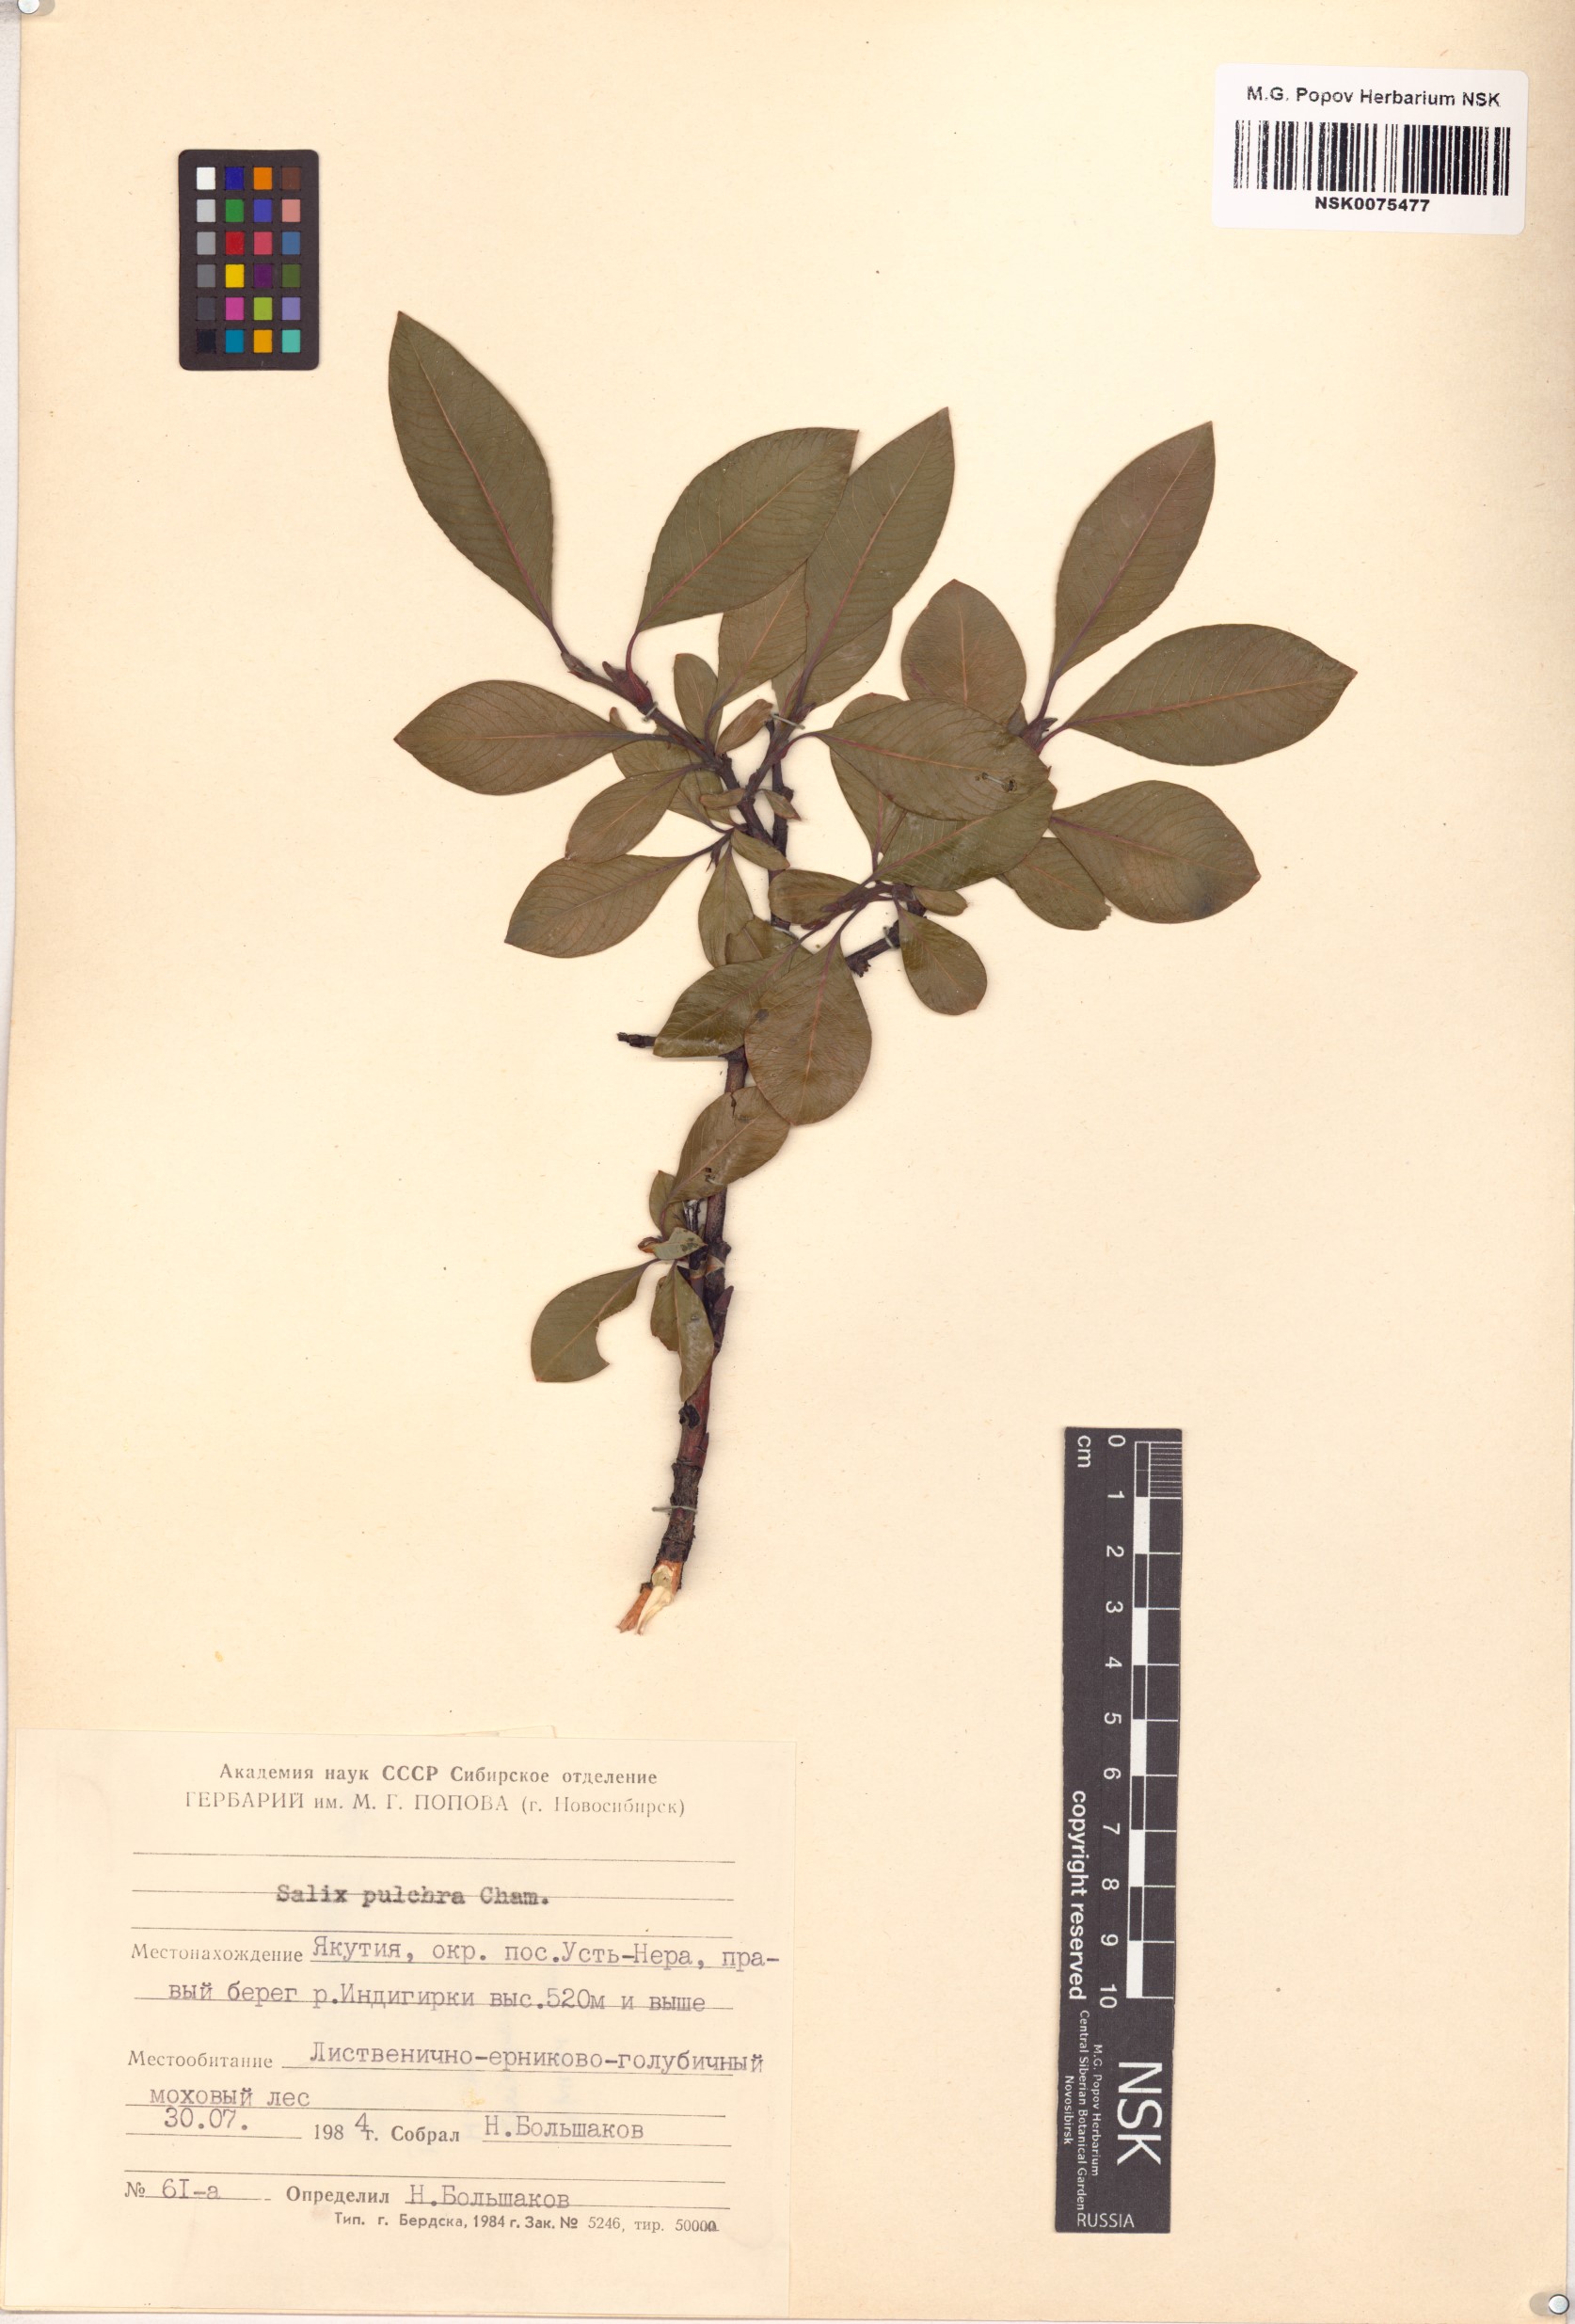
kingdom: Plantae
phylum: Tracheophyta
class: Magnoliopsida
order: Malpighiales
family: Salicaceae
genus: Salix
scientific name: Salix pulchra
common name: Diamond-leaved willow
